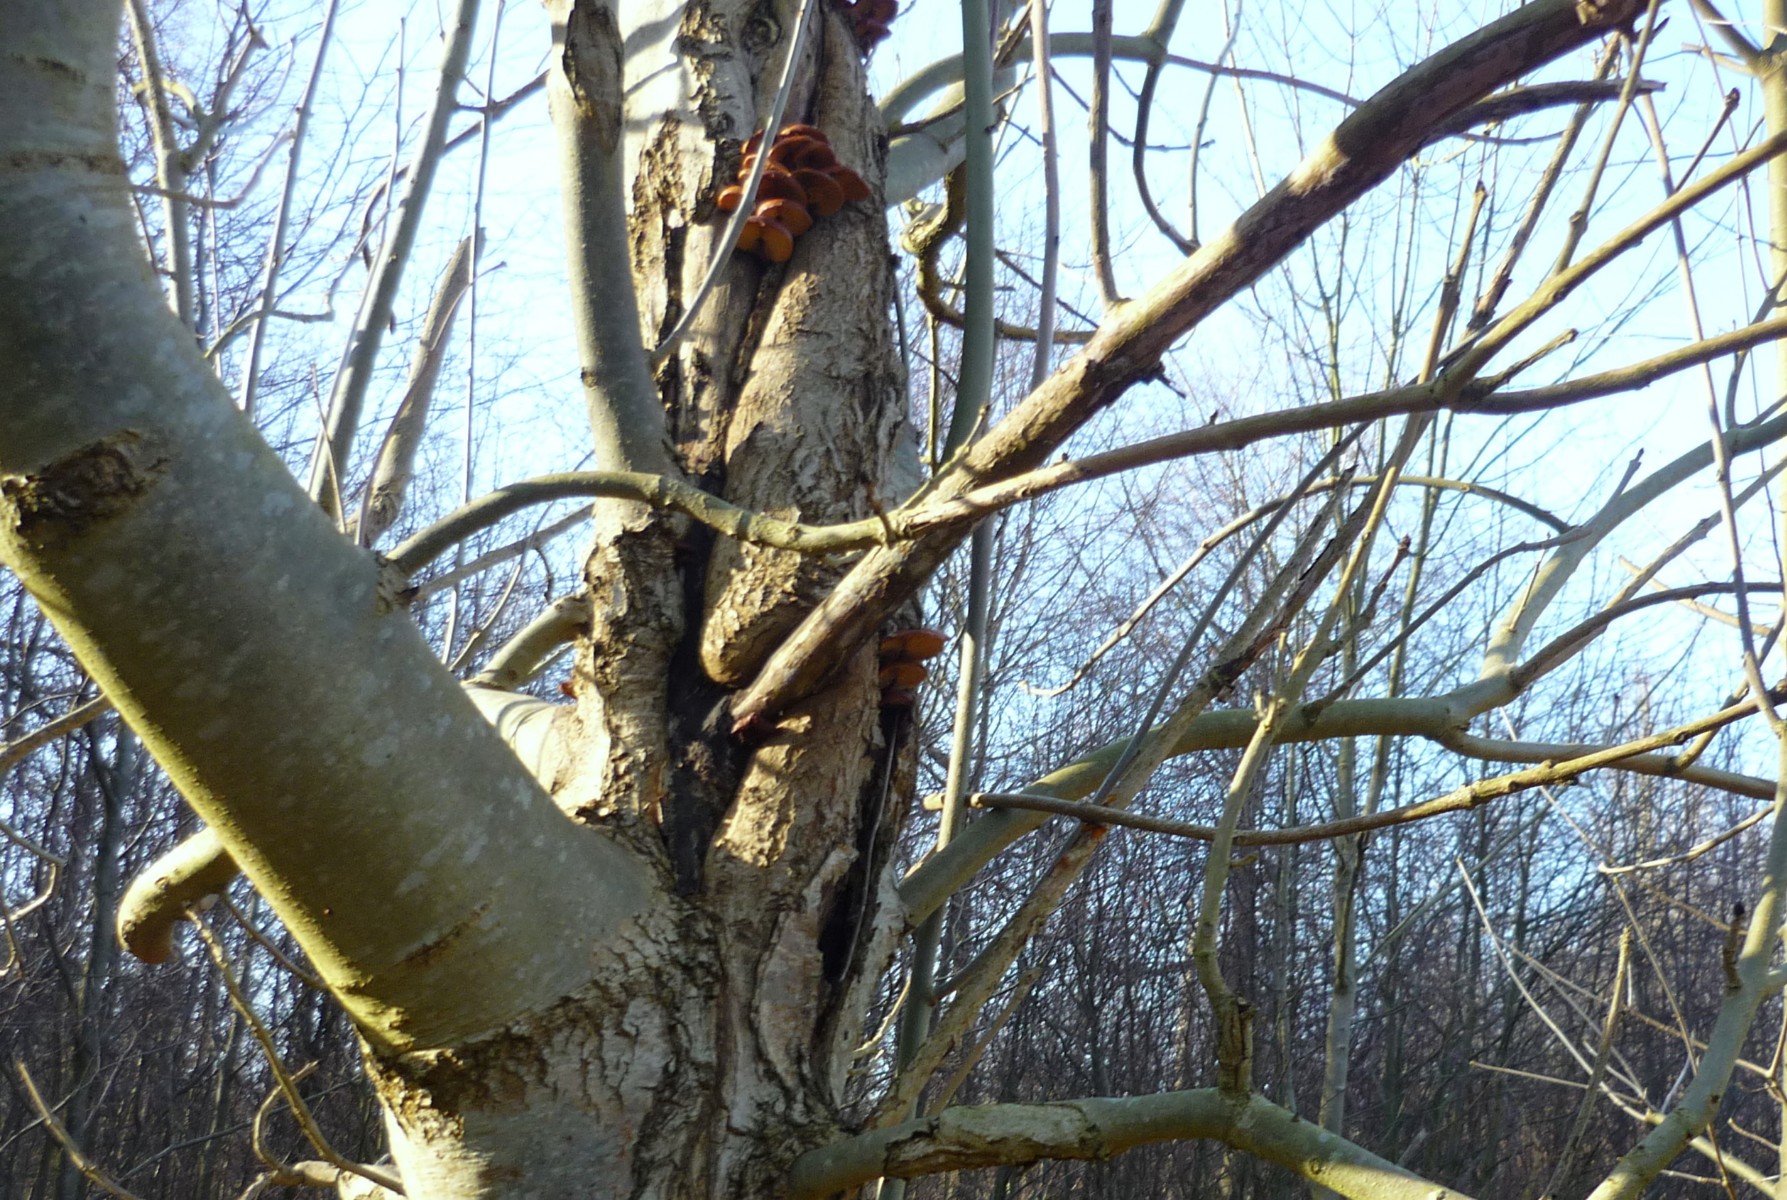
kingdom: Fungi
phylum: Basidiomycota
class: Agaricomycetes
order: Agaricales
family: Physalacriaceae
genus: Flammulina
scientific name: Flammulina velutipes
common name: gul fløjlsfod
